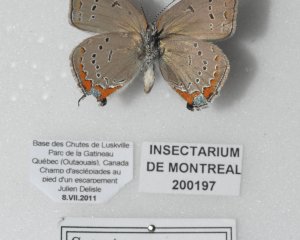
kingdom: Animalia
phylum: Arthropoda
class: Insecta
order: Lepidoptera
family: Lycaenidae
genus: Strymon
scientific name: Strymon acadica
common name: Acadian Hairstreak
